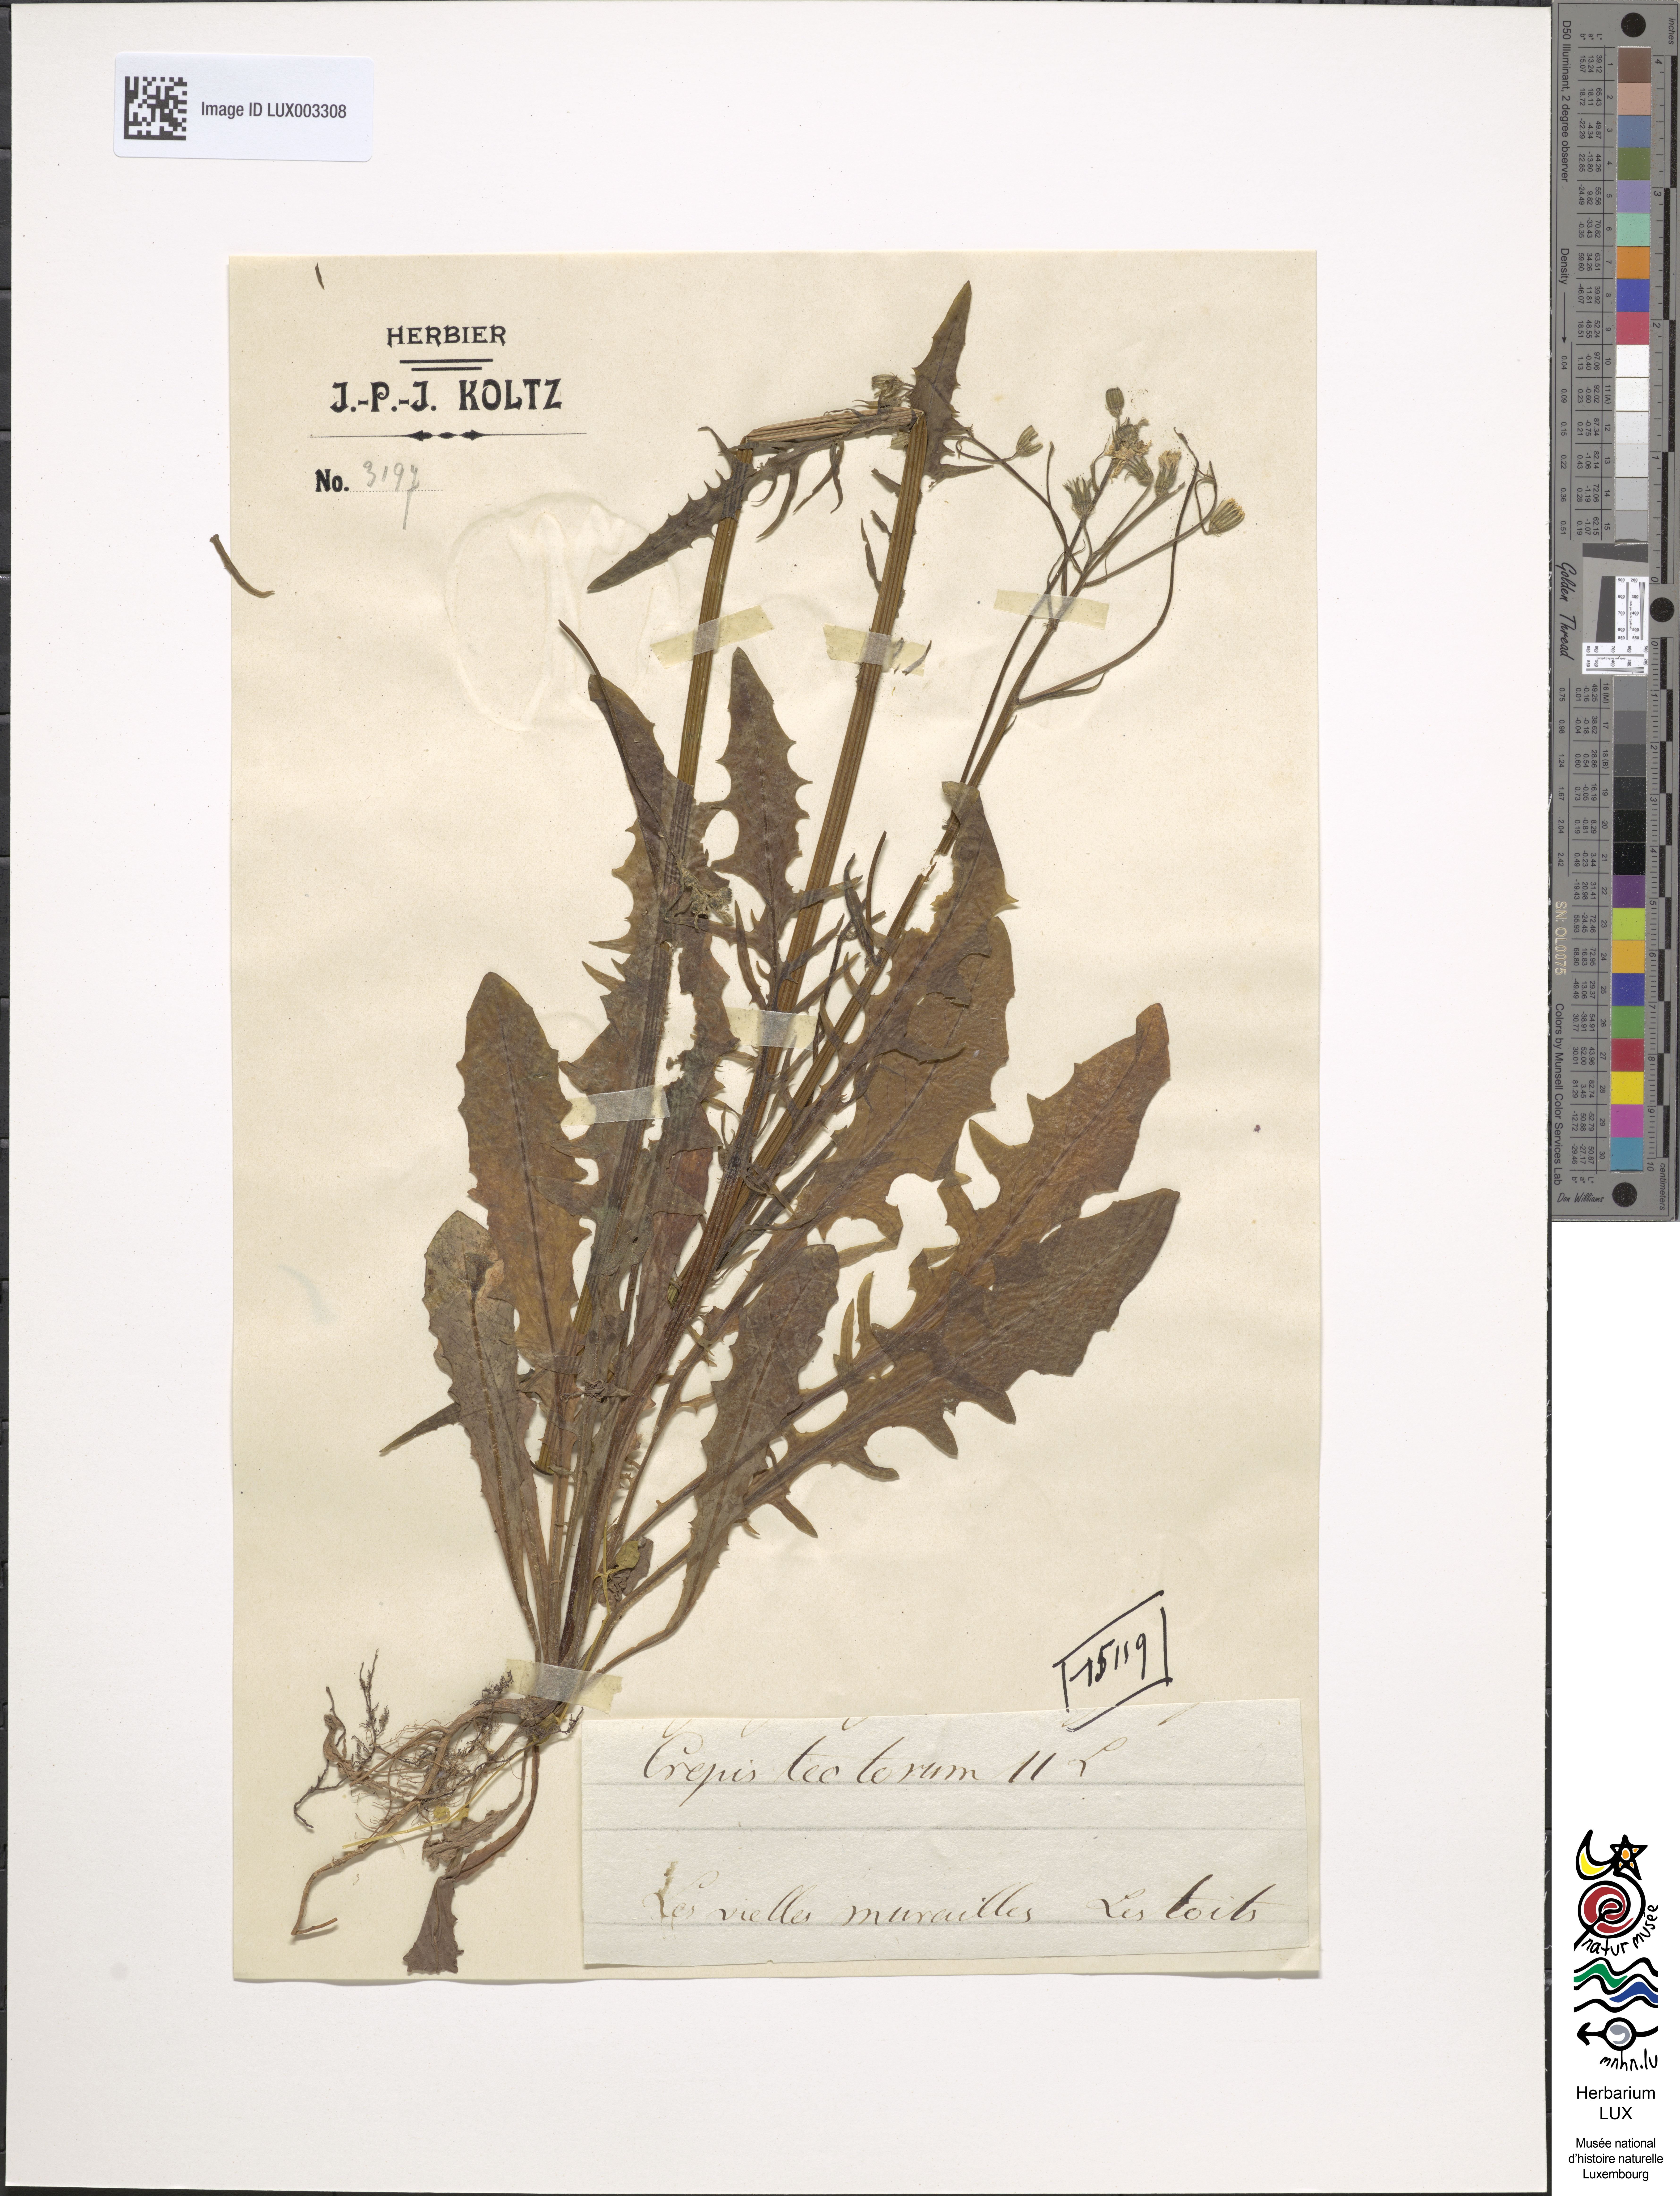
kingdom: Plantae
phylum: Tracheophyta
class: Magnoliopsida
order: Asterales
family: Asteraceae
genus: Crepis
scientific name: Crepis tectorum
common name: Narrow-leaved hawk's-beard
